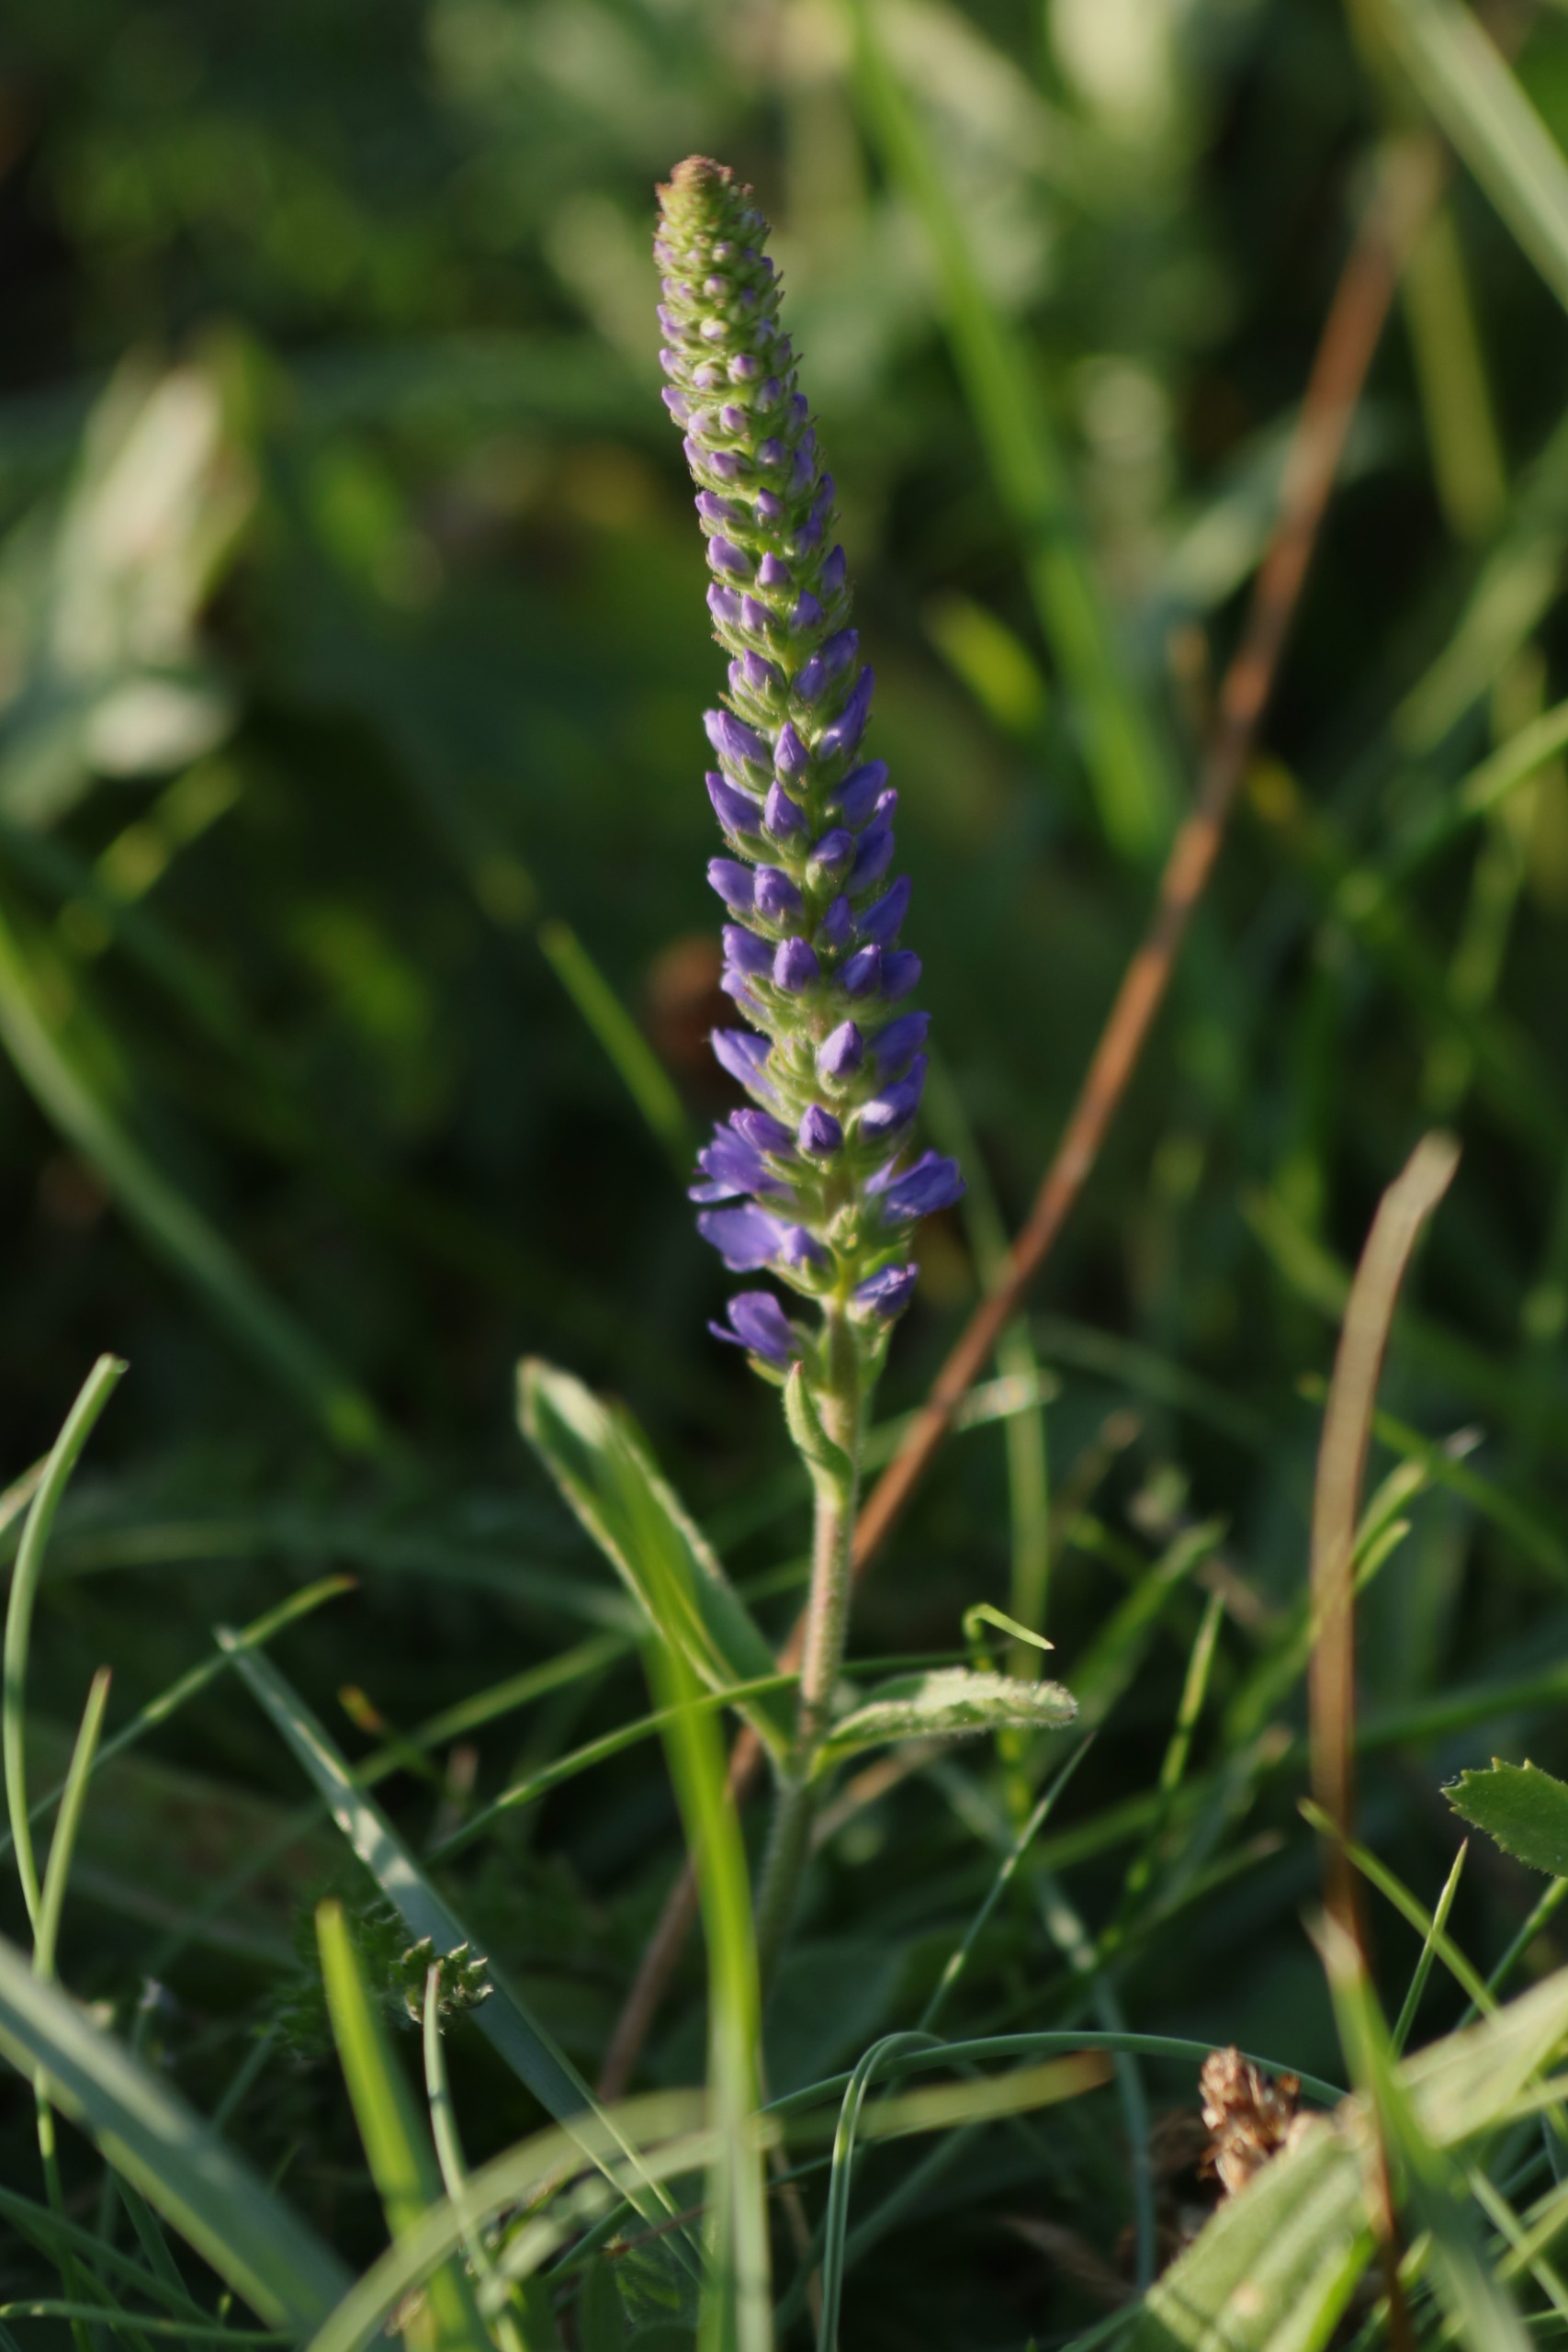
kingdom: Plantae
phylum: Tracheophyta
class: Magnoliopsida
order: Lamiales
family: Plantaginaceae
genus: Veronica
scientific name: Veronica spicata
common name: Aks-ærenpris
